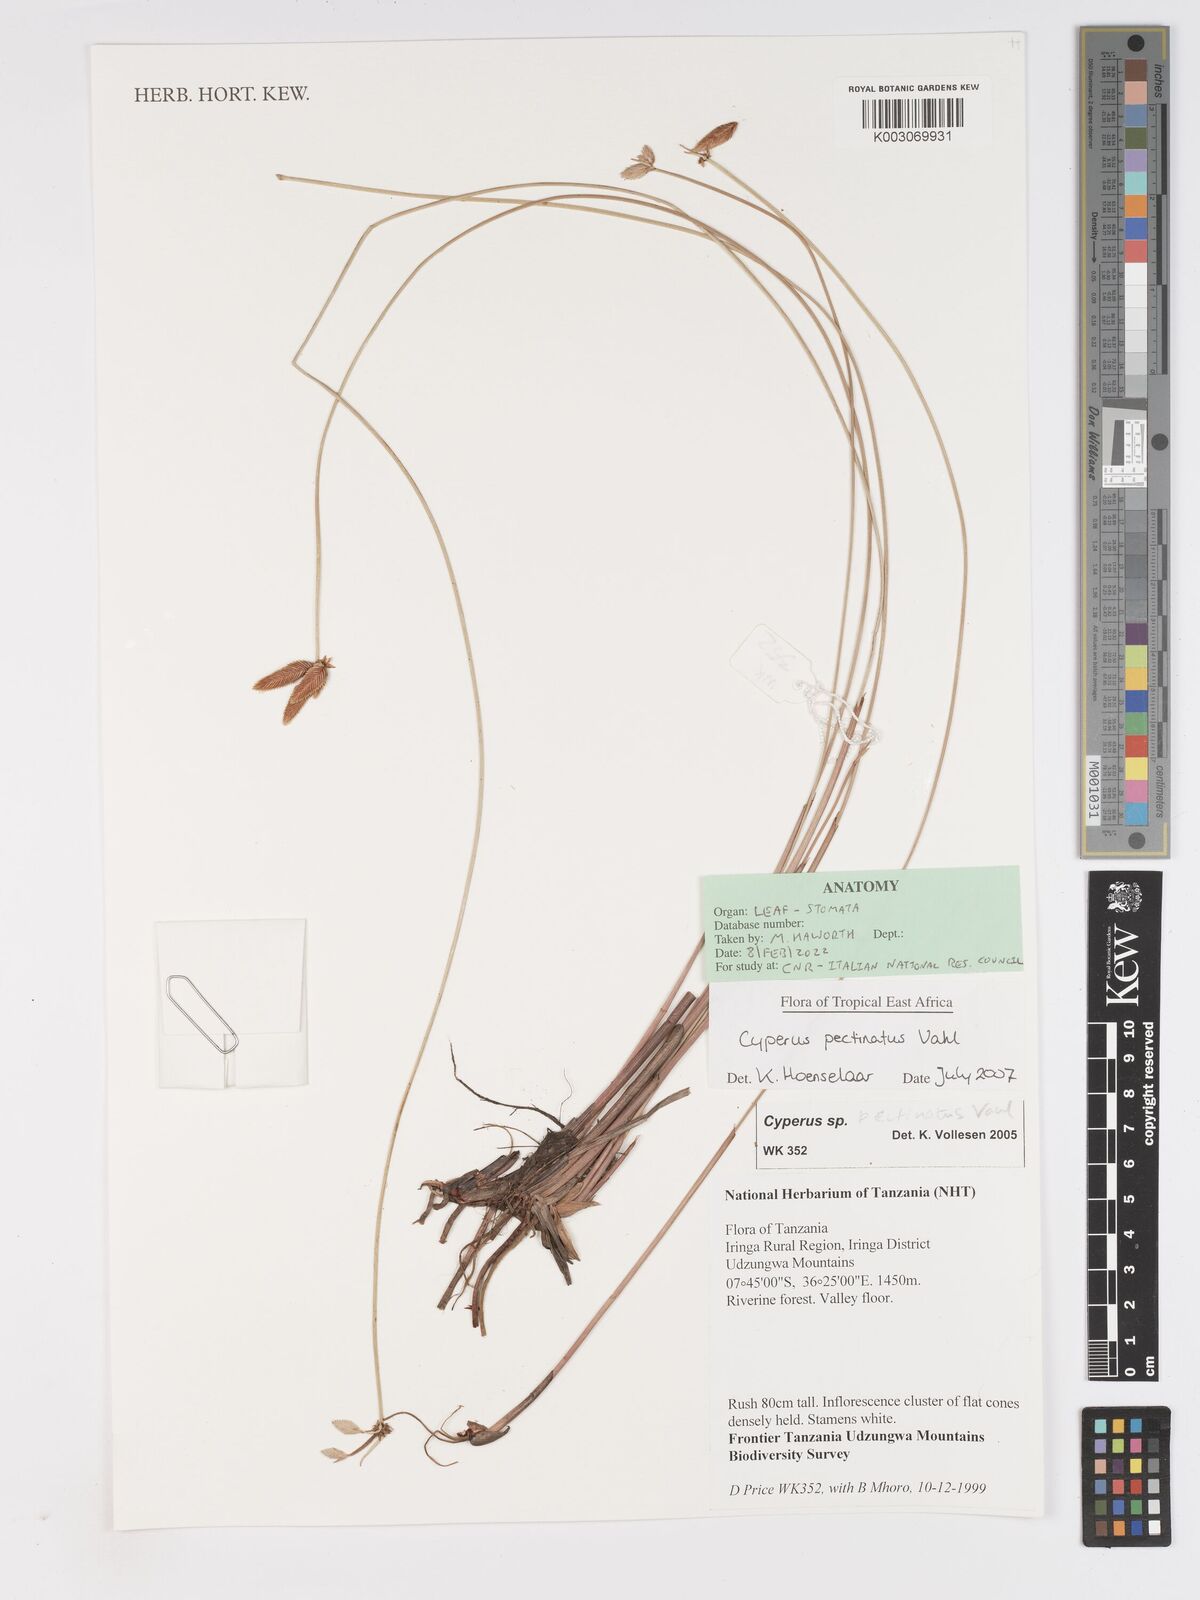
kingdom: Plantae
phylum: Tracheophyta
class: Liliopsida
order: Poales
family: Cyperaceae
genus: Cyperus
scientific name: Cyperus pectinatus
